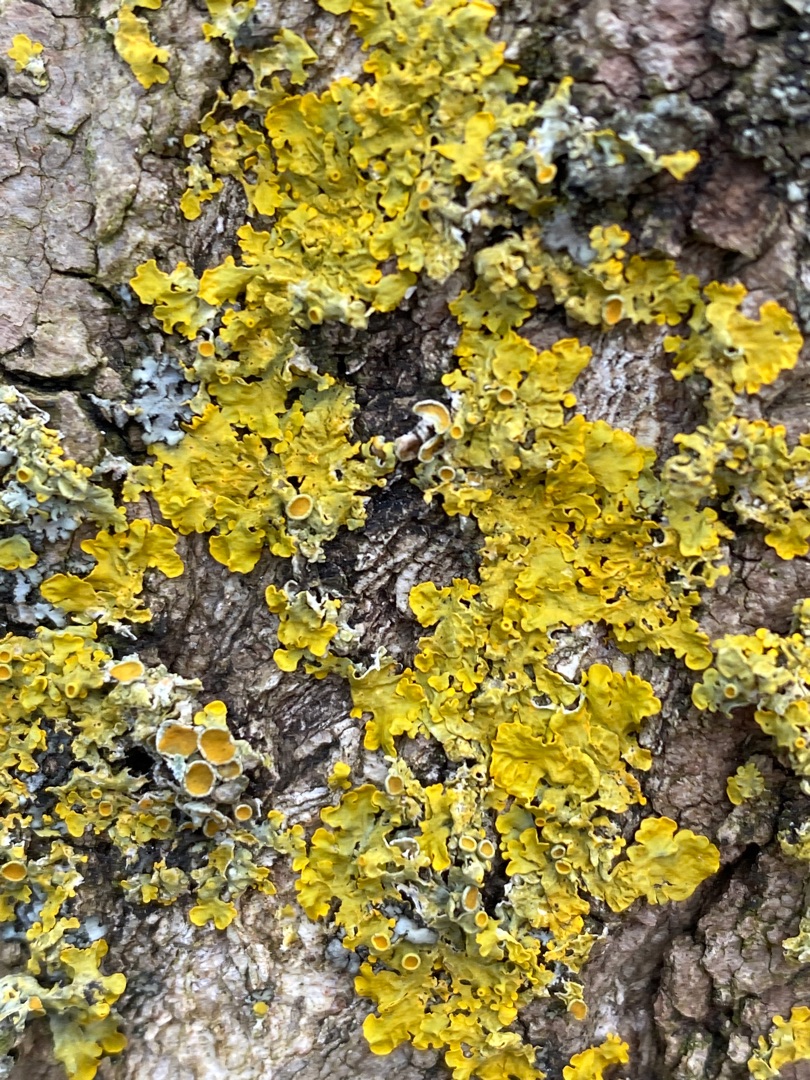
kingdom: Fungi
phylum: Ascomycota
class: Lecanoromycetes
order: Teloschistales
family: Teloschistaceae
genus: Xanthoria
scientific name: Xanthoria parietina
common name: Almindelig væggelav
